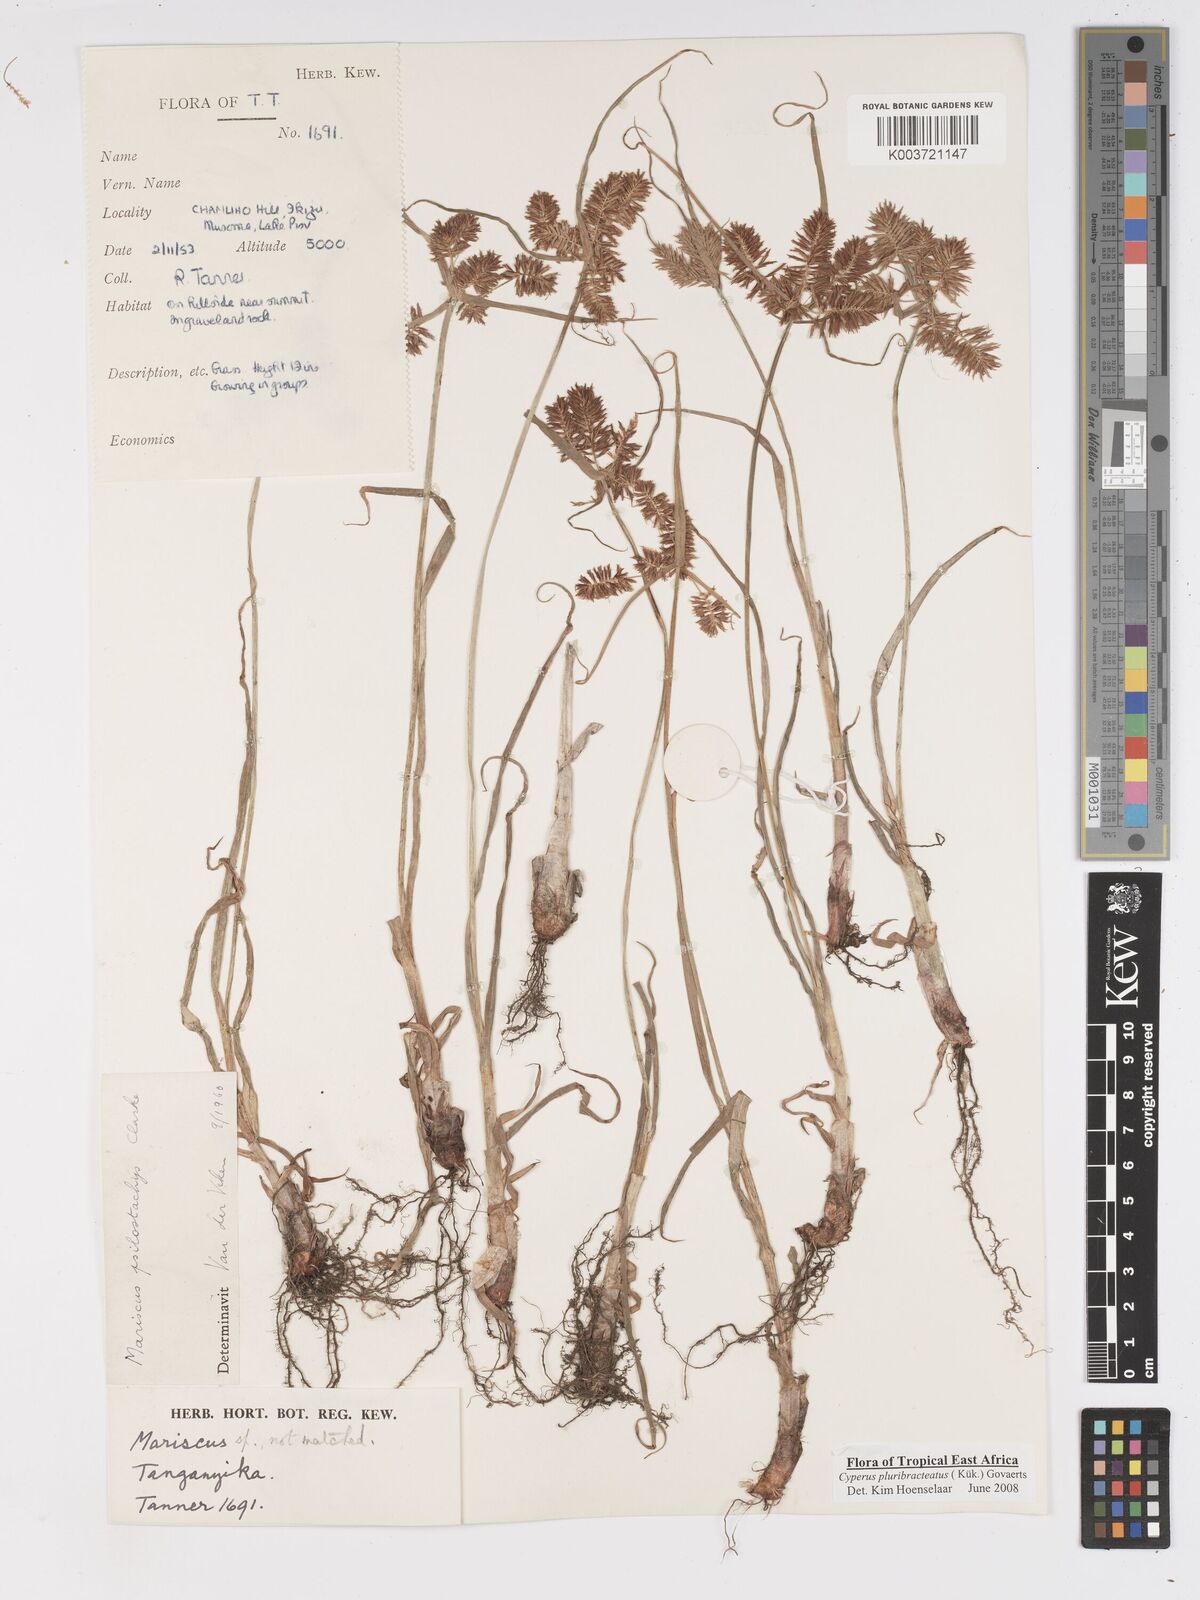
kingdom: Plantae
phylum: Tracheophyta
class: Liliopsida
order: Poales
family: Cyperaceae
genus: Cyperus
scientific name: Cyperus trigonellus
